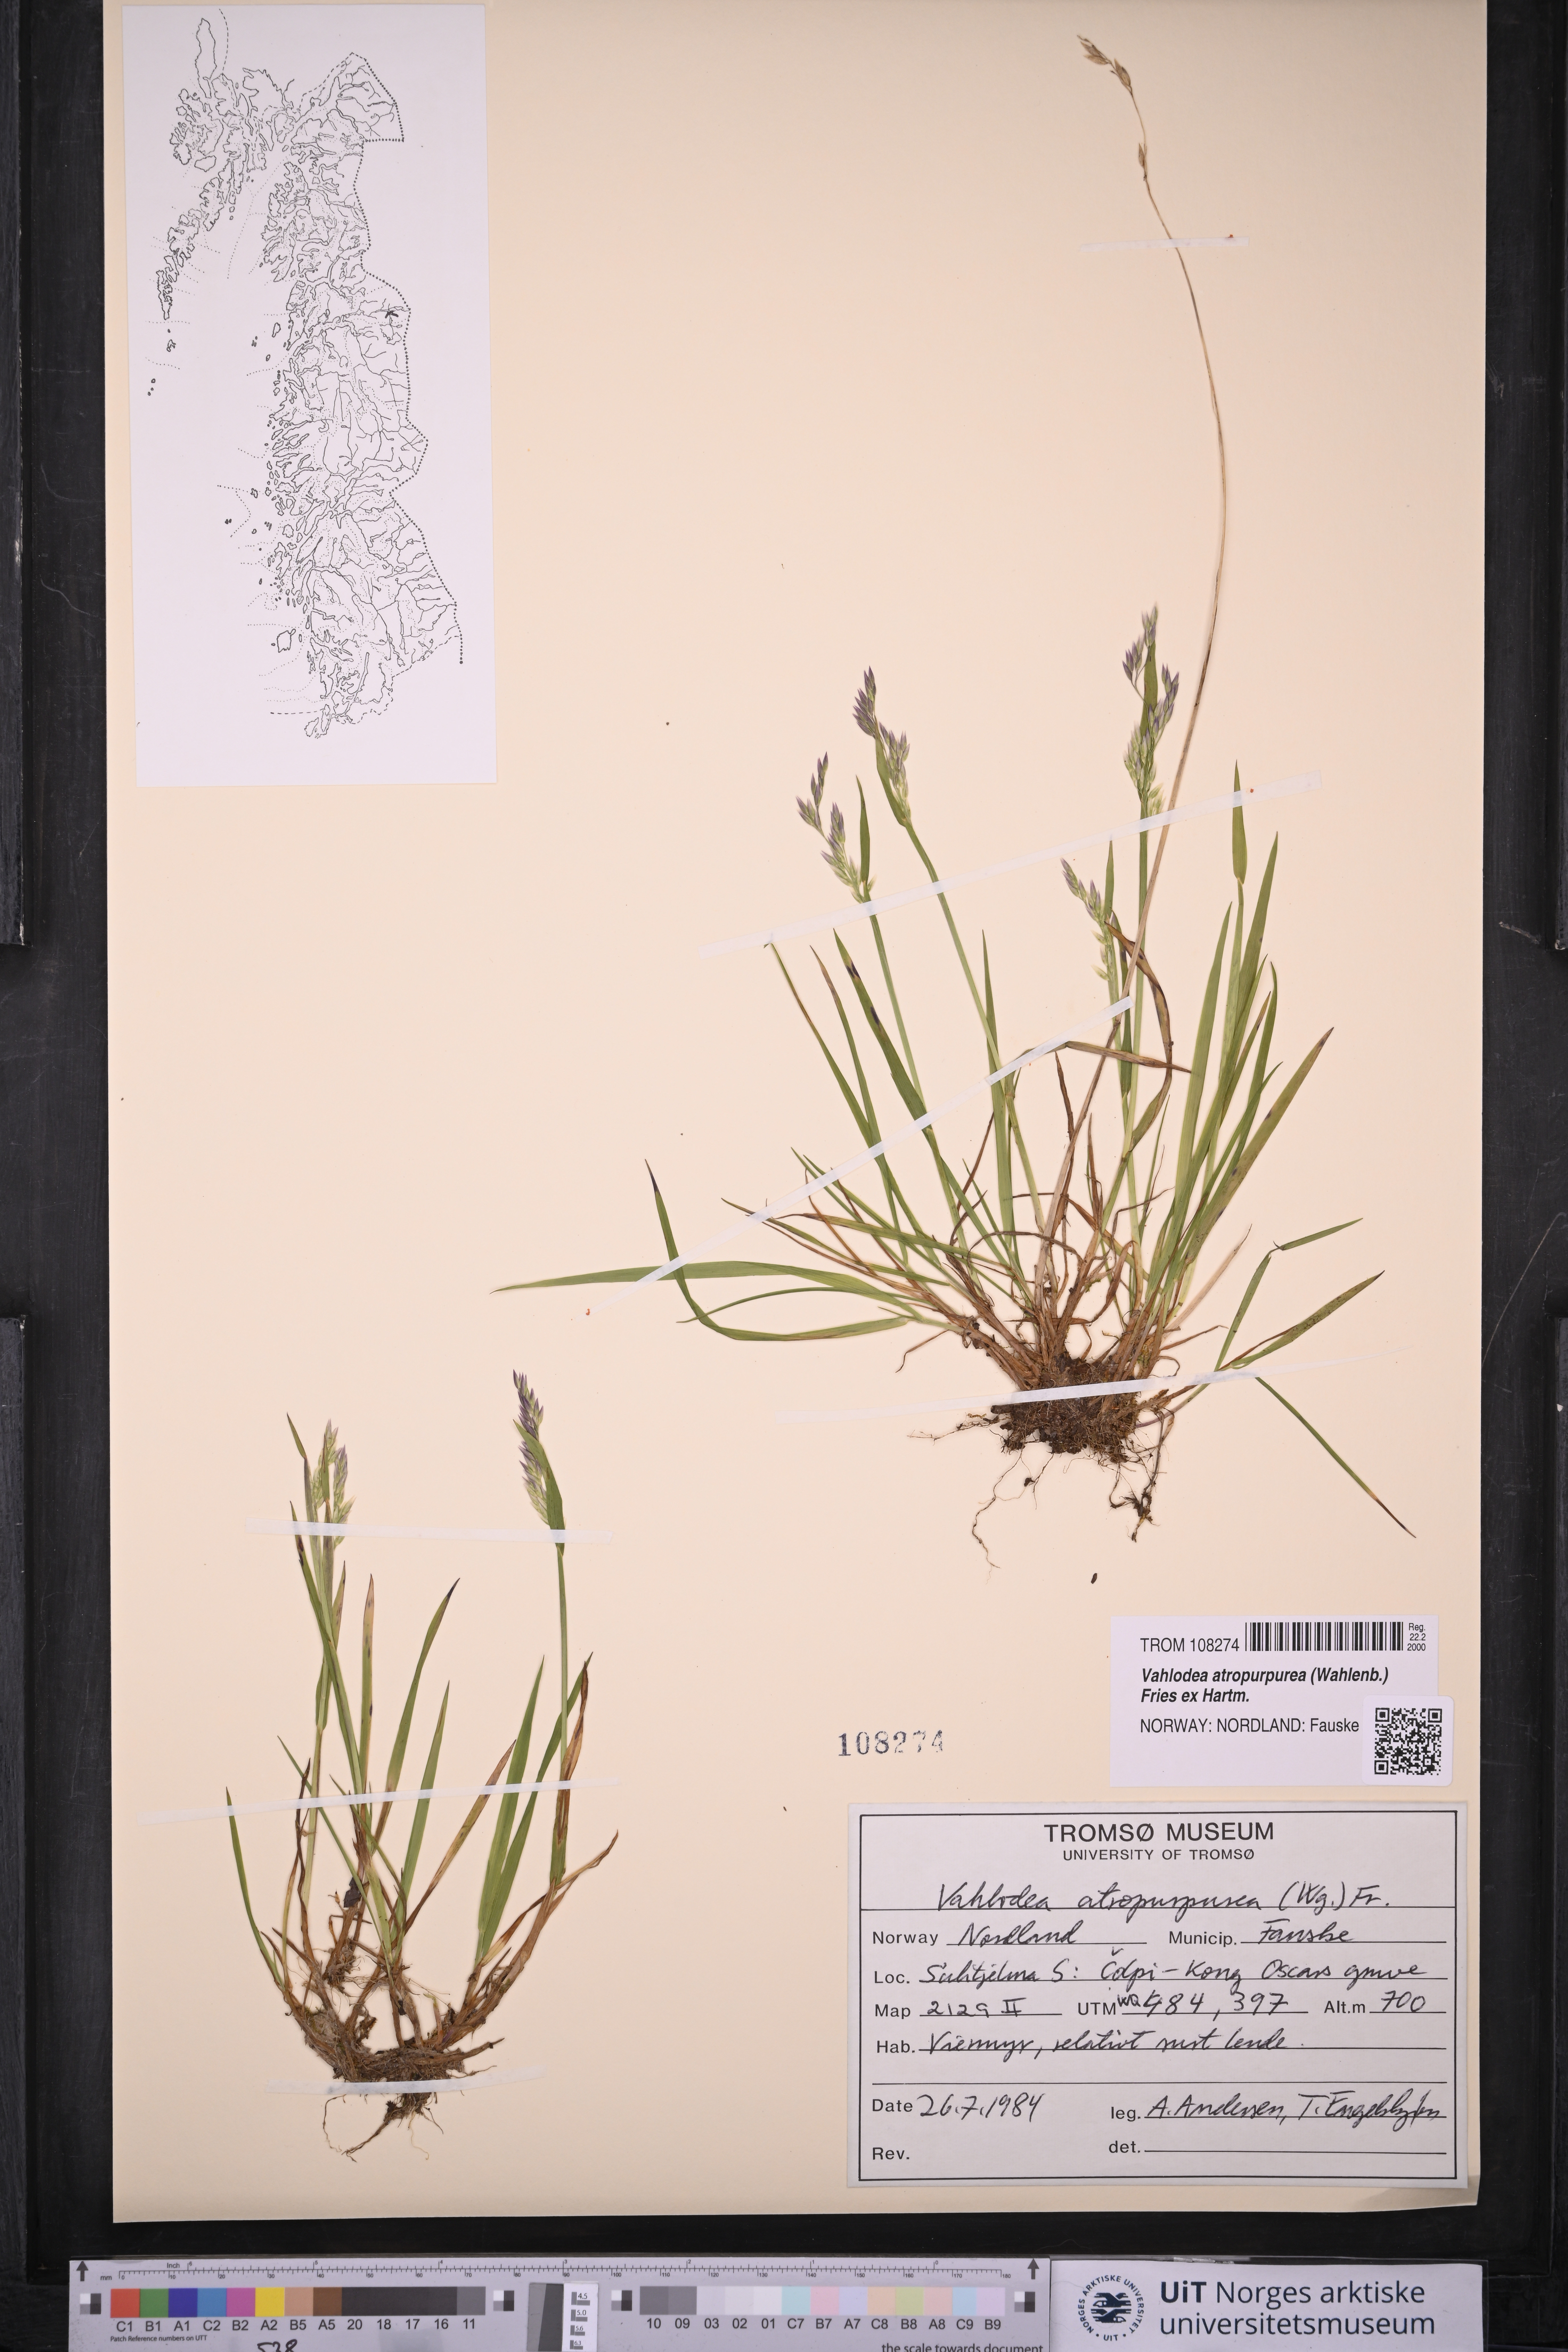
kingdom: Plantae
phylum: Tracheophyta
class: Liliopsida
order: Poales
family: Poaceae
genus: Vahlodea
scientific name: Vahlodea atropurpurea
